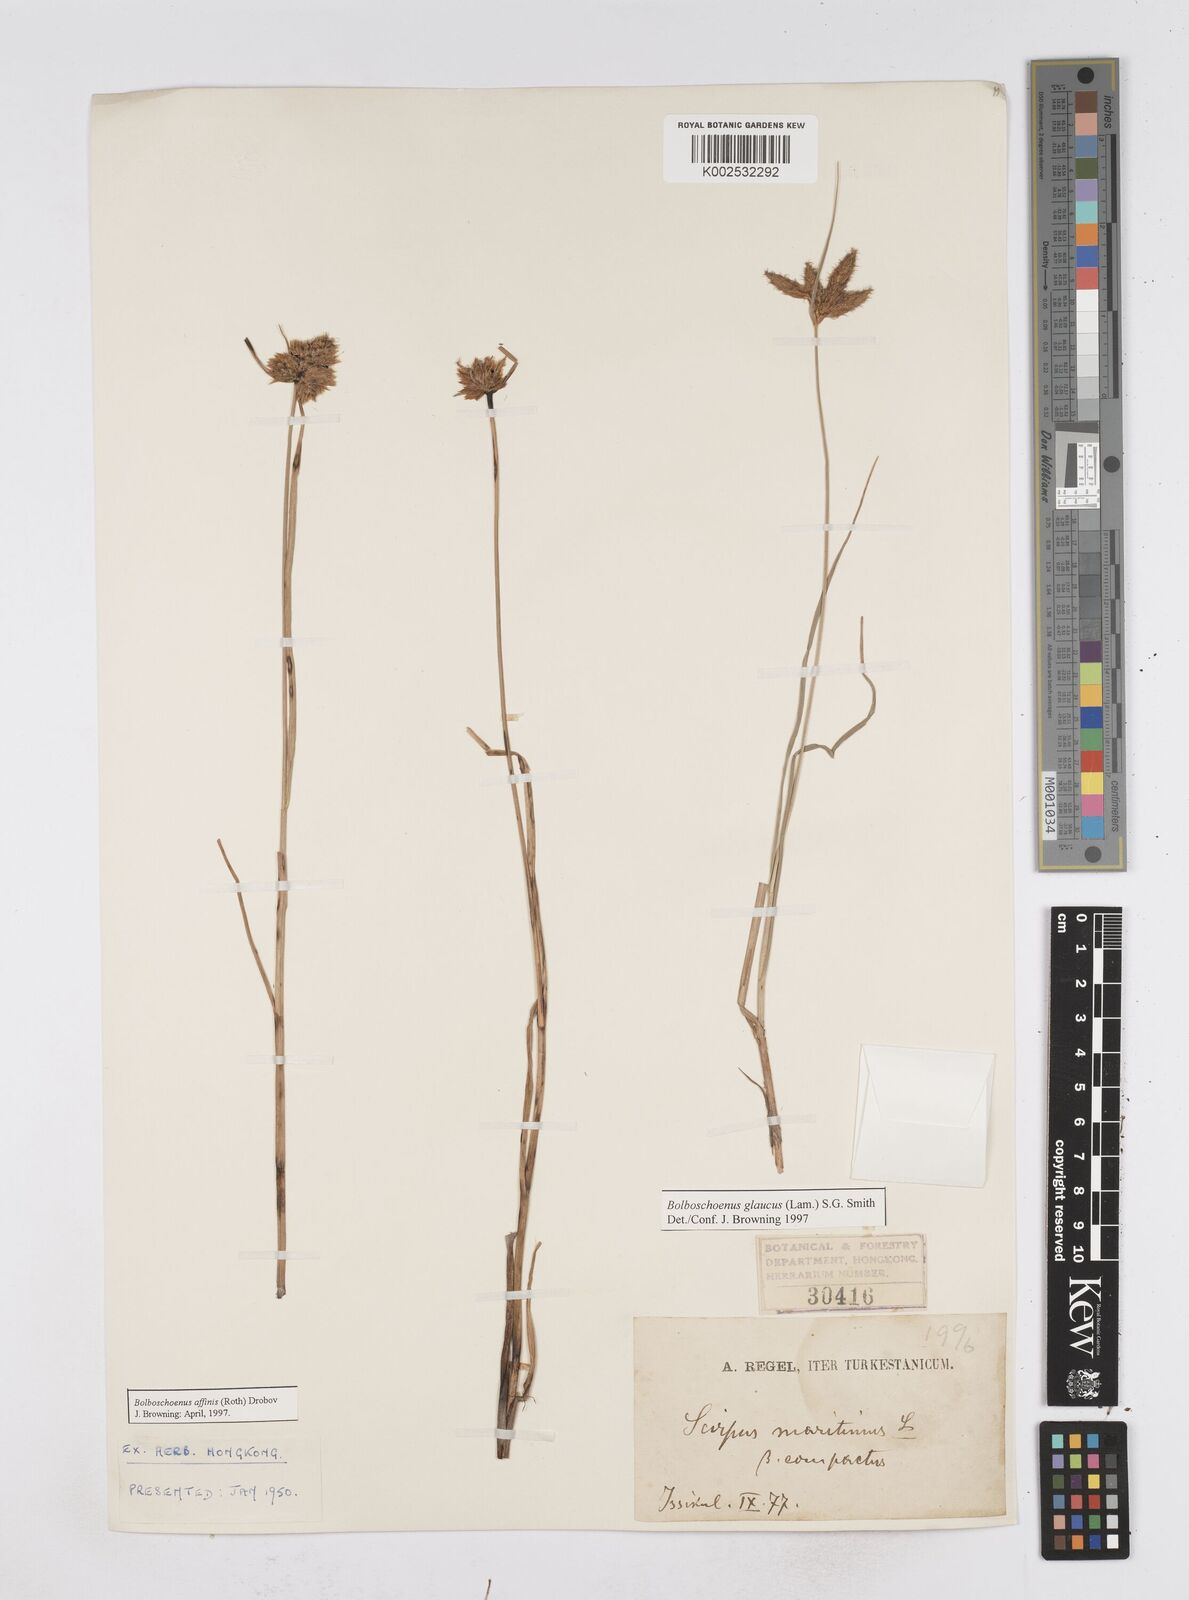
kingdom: Plantae
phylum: Tracheophyta
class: Liliopsida
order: Poales
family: Cyperaceae
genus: Bolboschoenus
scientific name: Bolboschoenus maritimus
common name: Sea club-rush
